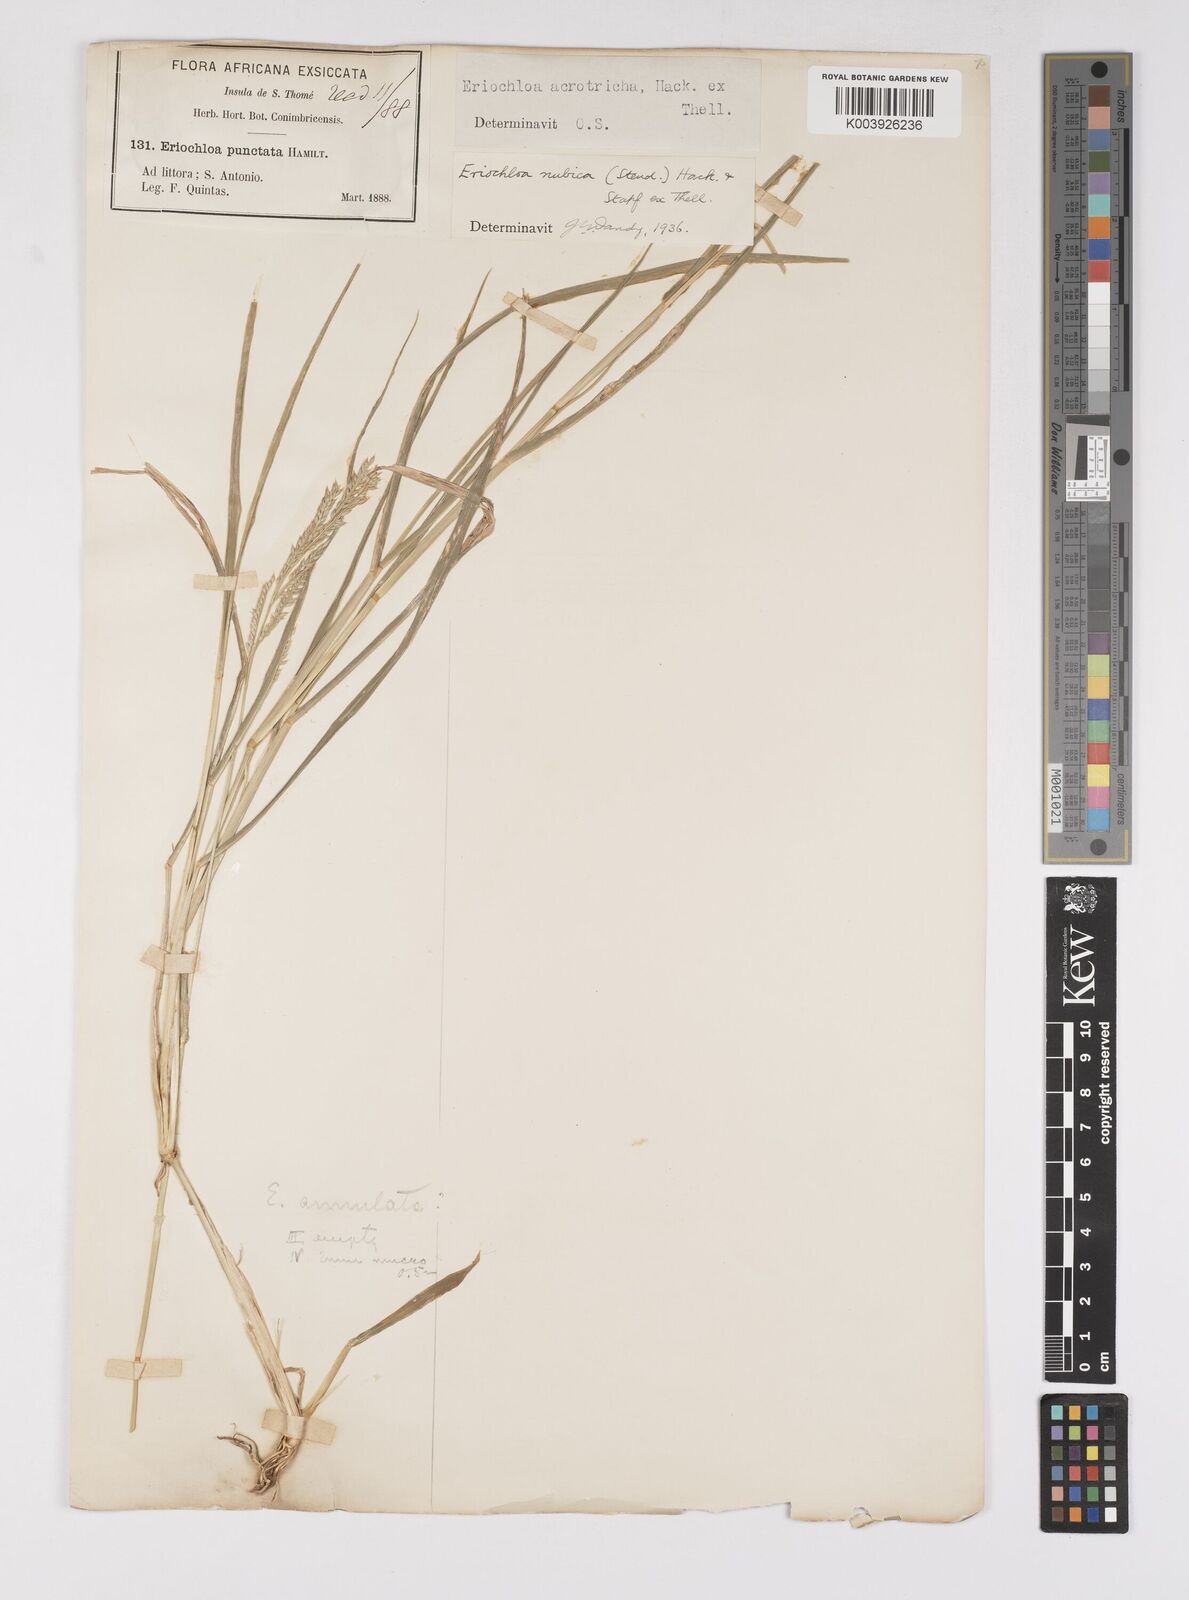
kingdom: Plantae
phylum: Tracheophyta
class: Liliopsida
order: Poales
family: Poaceae
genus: Eriochloa
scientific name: Eriochloa barbatus
